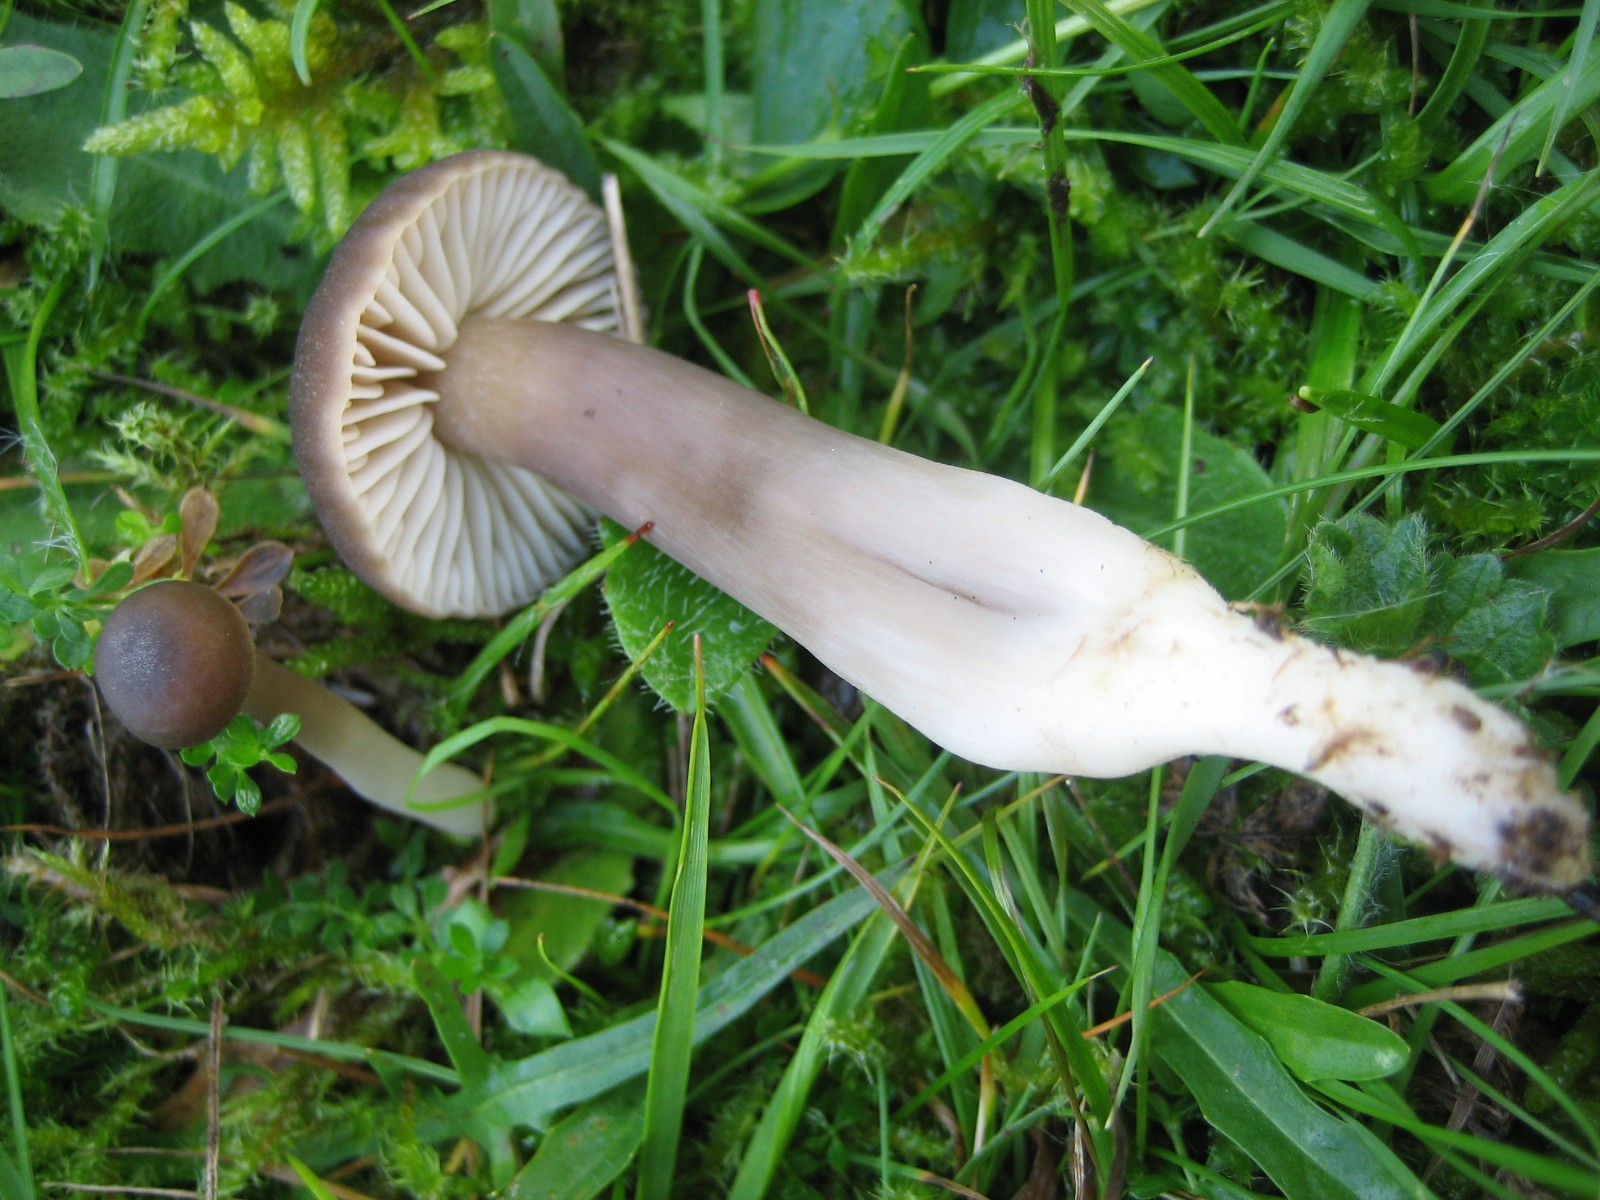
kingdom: Fungi
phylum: Basidiomycota
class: Agaricomycetes
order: Agaricales
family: Hygrophoraceae
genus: Neohygrocybe
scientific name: Neohygrocybe nitrata
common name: stinkende vokshat
